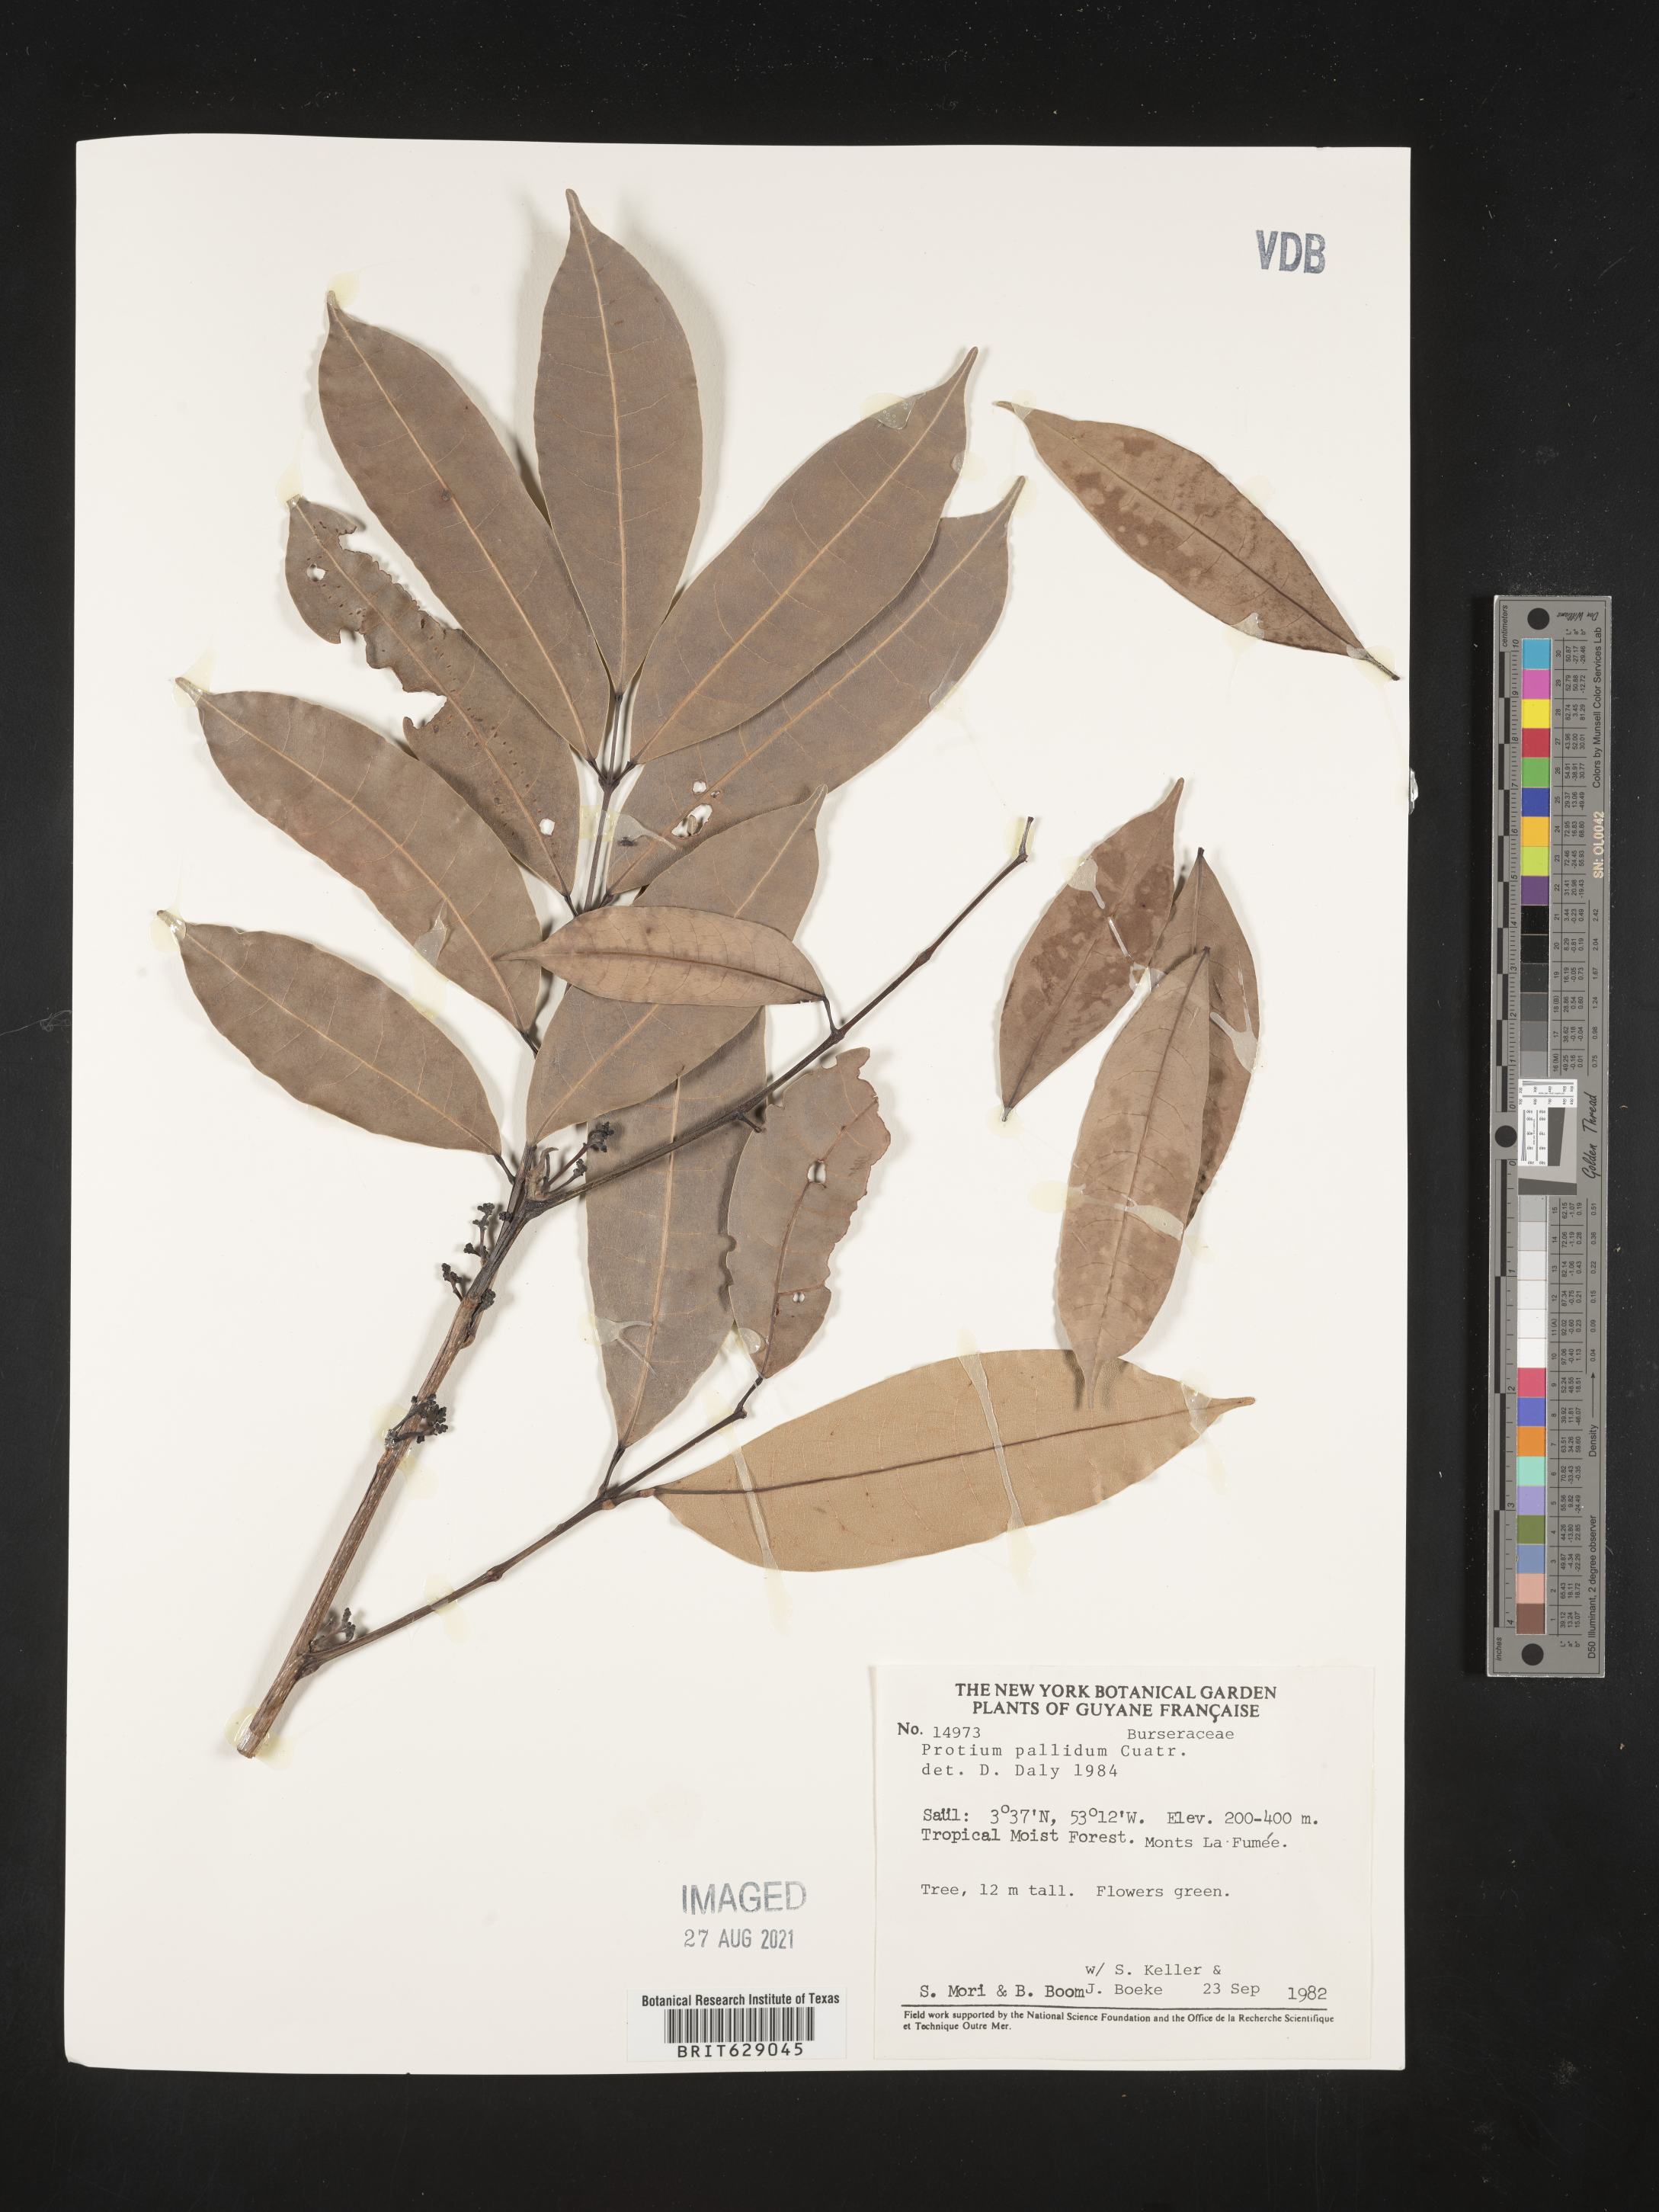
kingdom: Plantae
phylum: Tracheophyta
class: Magnoliopsida
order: Sapindales
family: Burseraceae
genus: Protium
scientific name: Protium pallidum
